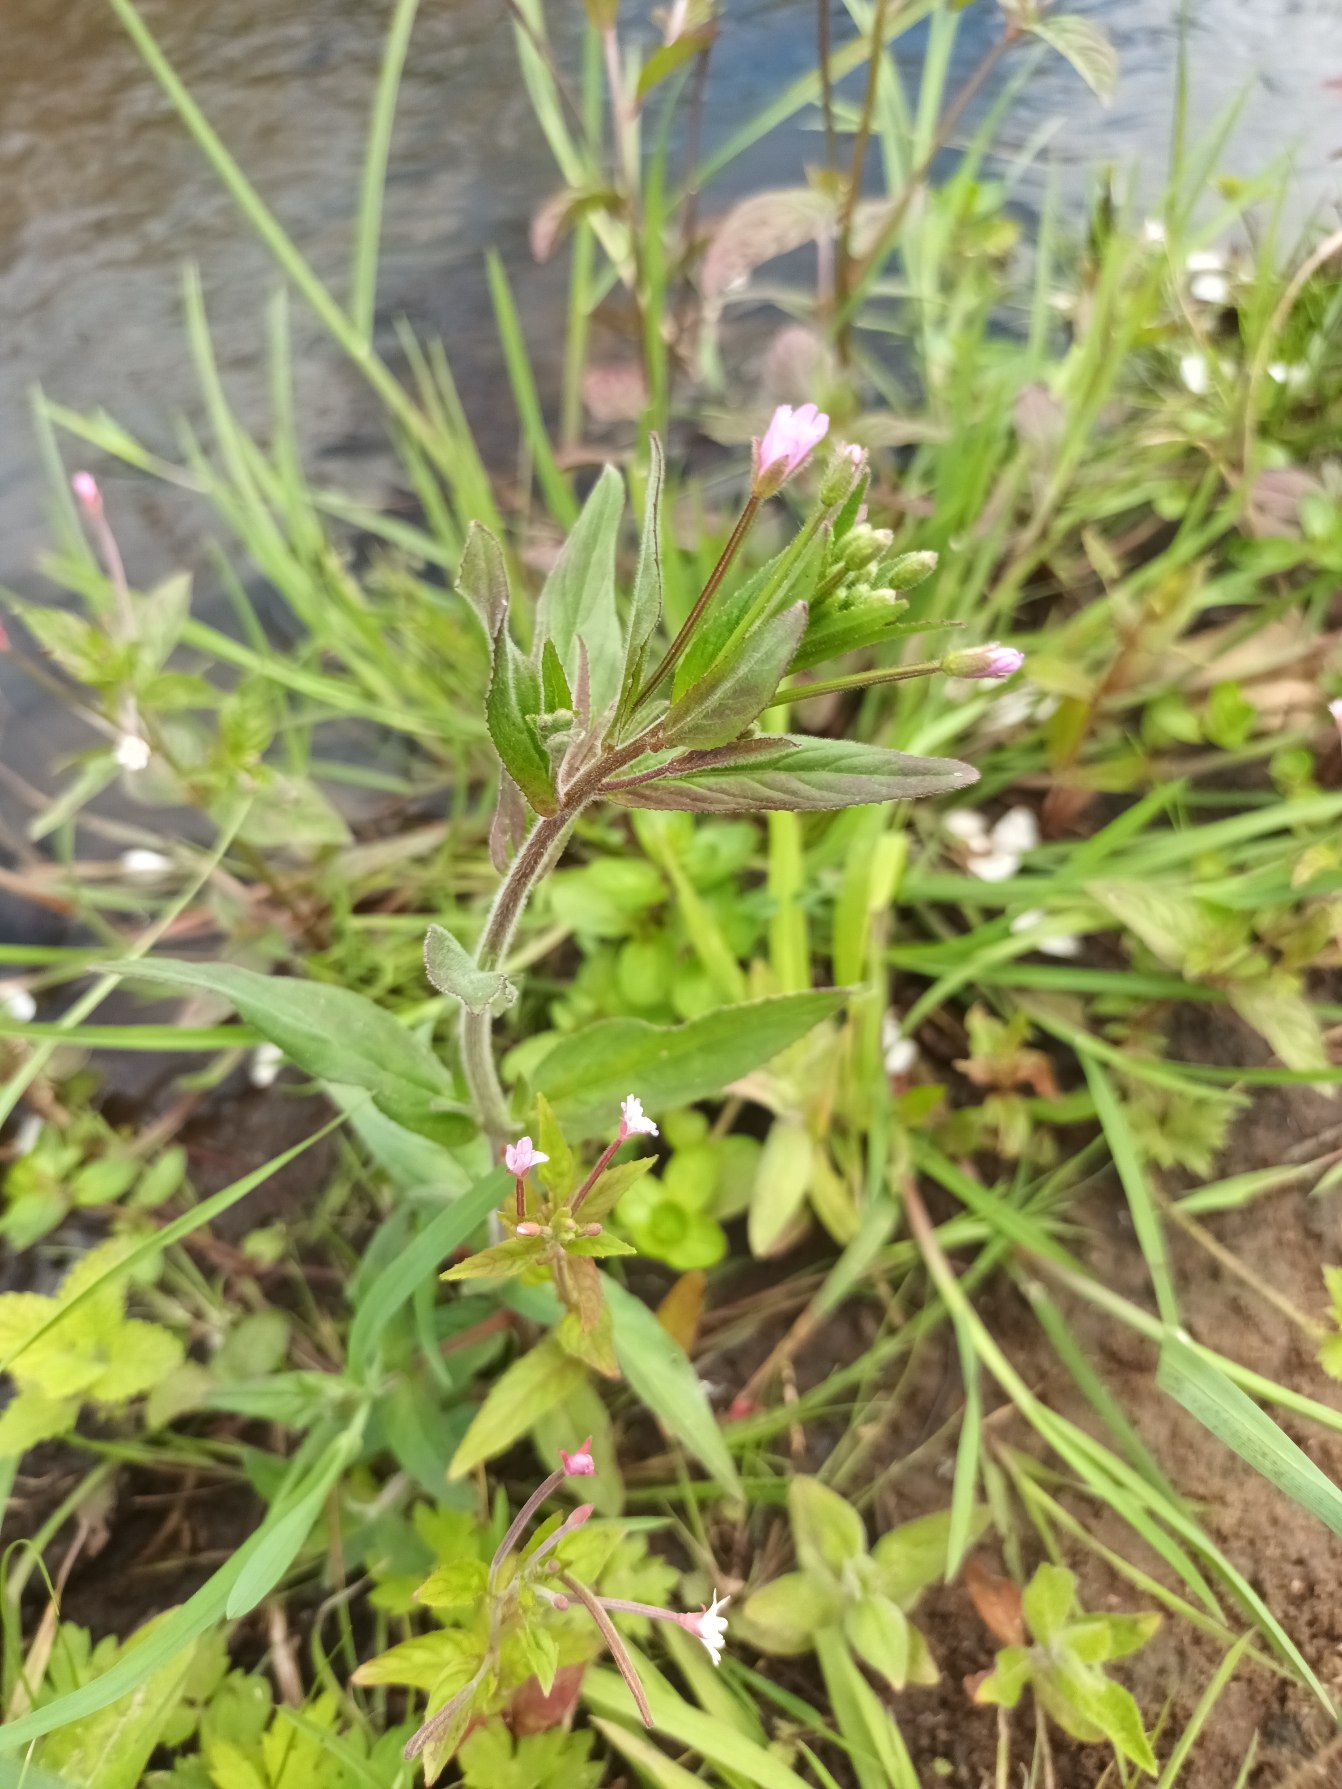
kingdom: Plantae
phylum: Tracheophyta
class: Magnoliopsida
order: Myrtales
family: Onagraceae
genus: Epilobium
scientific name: Epilobium parviflorum
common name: Dunet dueurt
